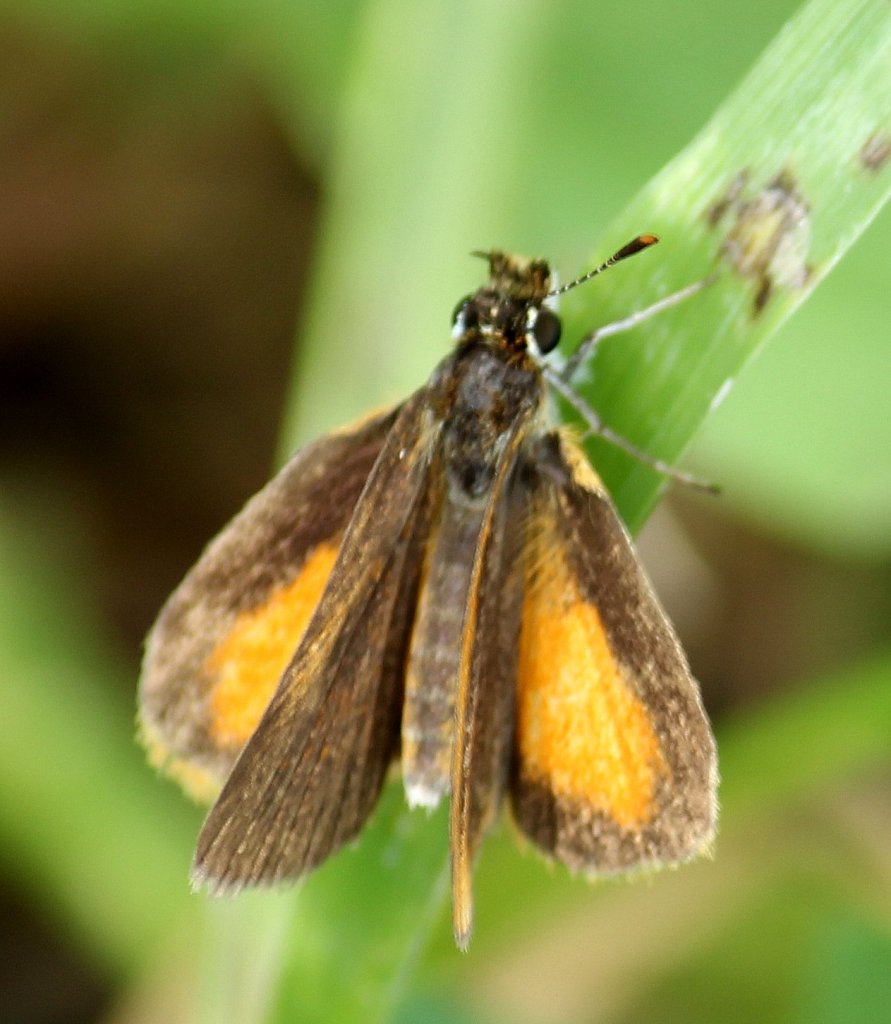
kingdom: Animalia
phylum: Arthropoda
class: Insecta
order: Lepidoptera
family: Hesperiidae
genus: Ancyloxypha
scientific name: Ancyloxypha numitor
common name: Least Skipper
